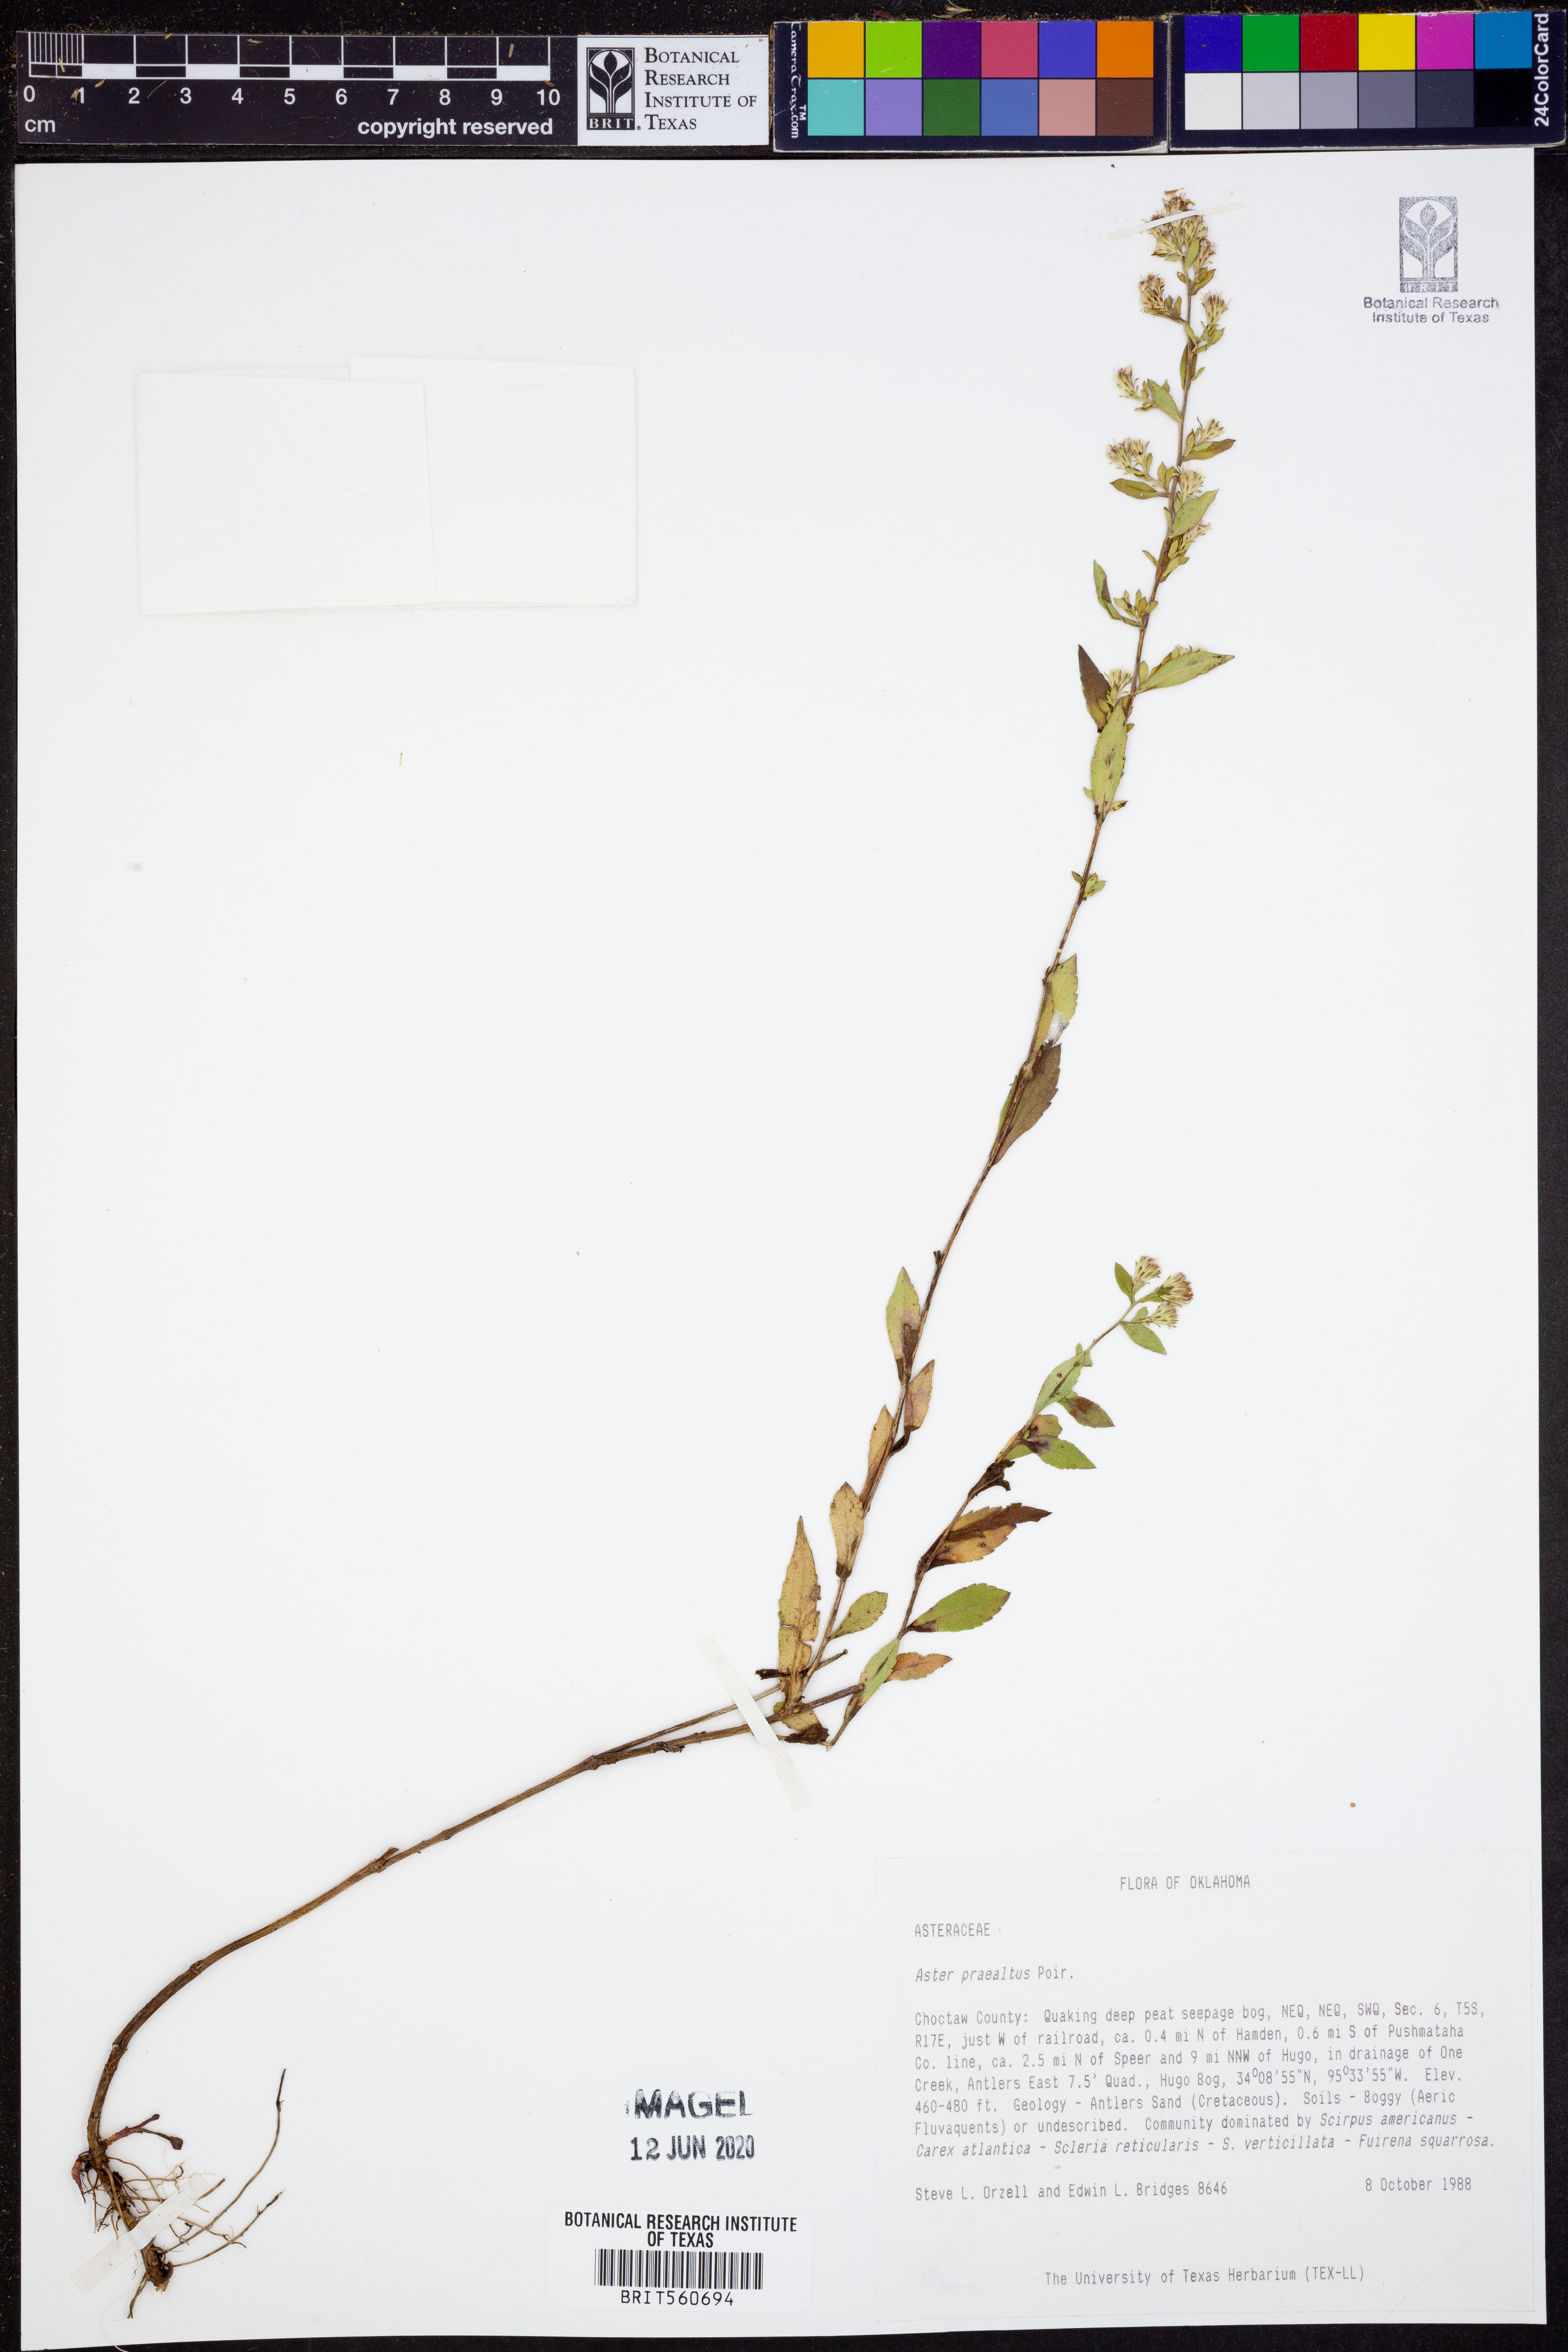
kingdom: Plantae
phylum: Tracheophyta
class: Magnoliopsida
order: Asterales
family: Asteraceae
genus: Symphyotrichum
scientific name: Symphyotrichum praealtum
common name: Willow aster
